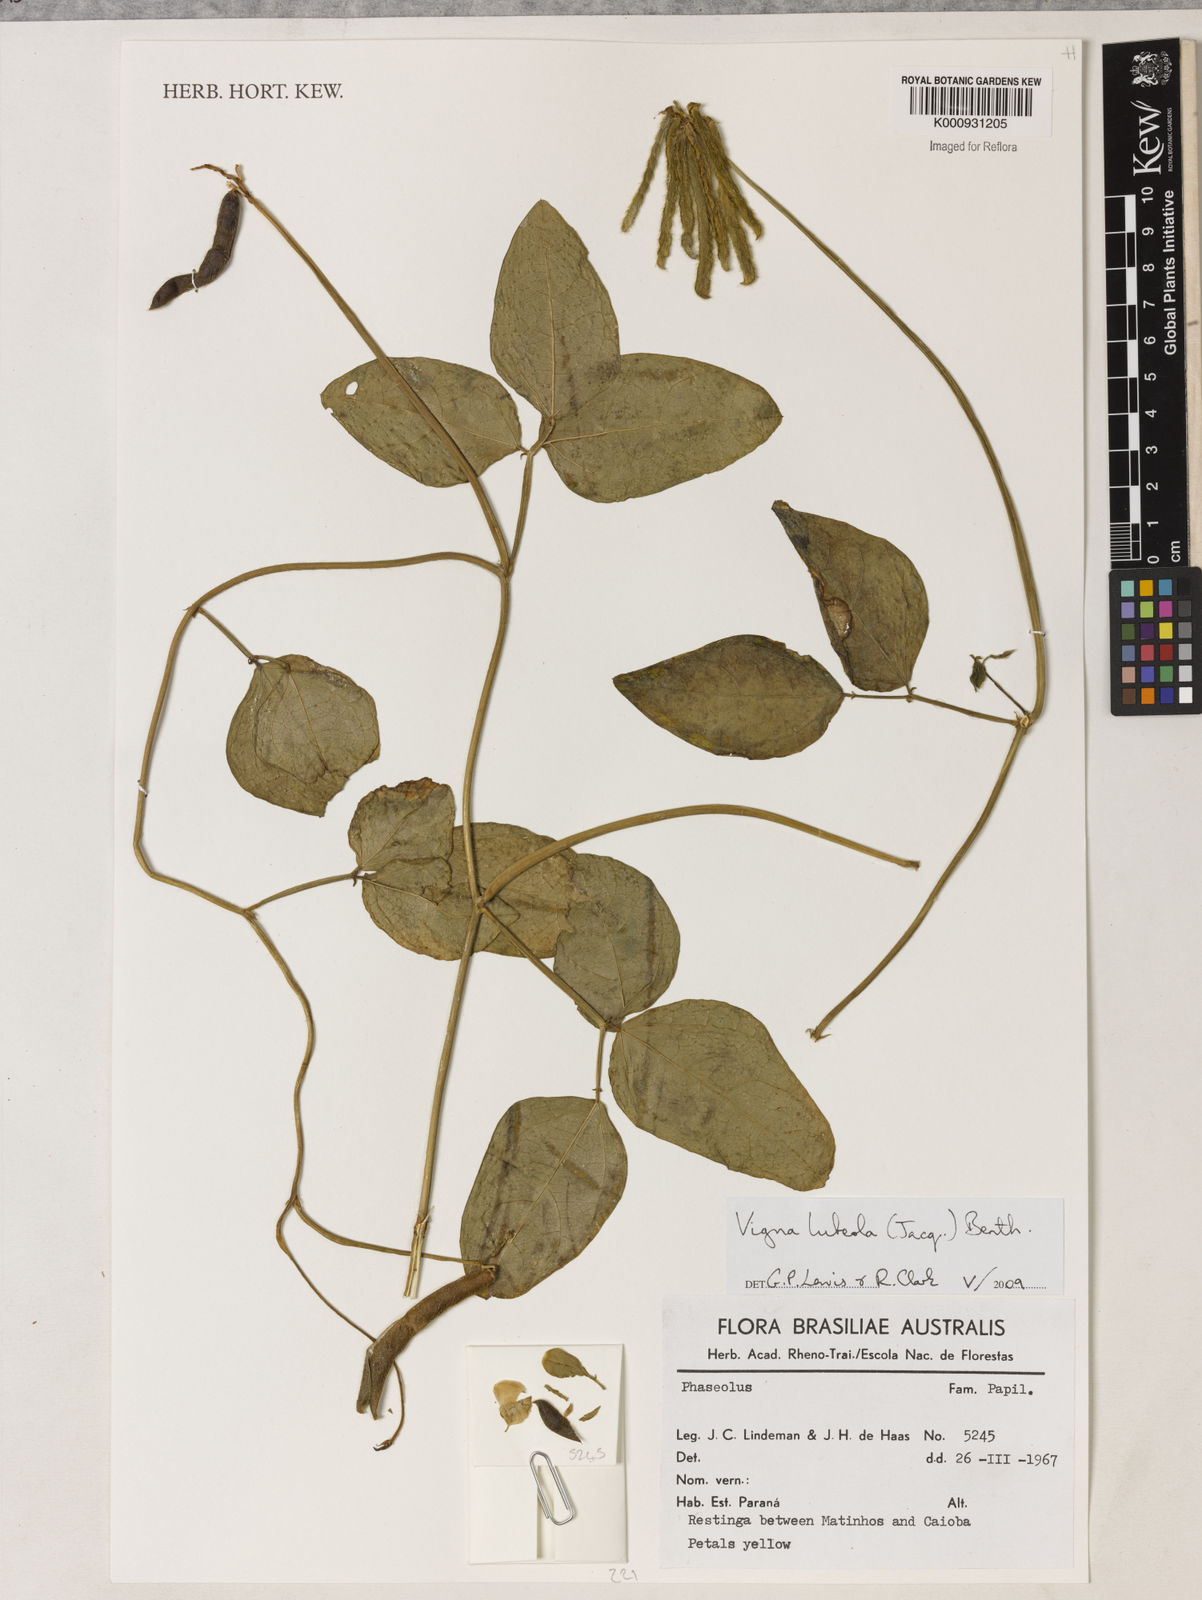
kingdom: Plantae
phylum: Tracheophyta
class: Magnoliopsida
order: Fabales
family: Fabaceae
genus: Vigna
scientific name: Vigna luteola
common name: Hairypod cowpea
